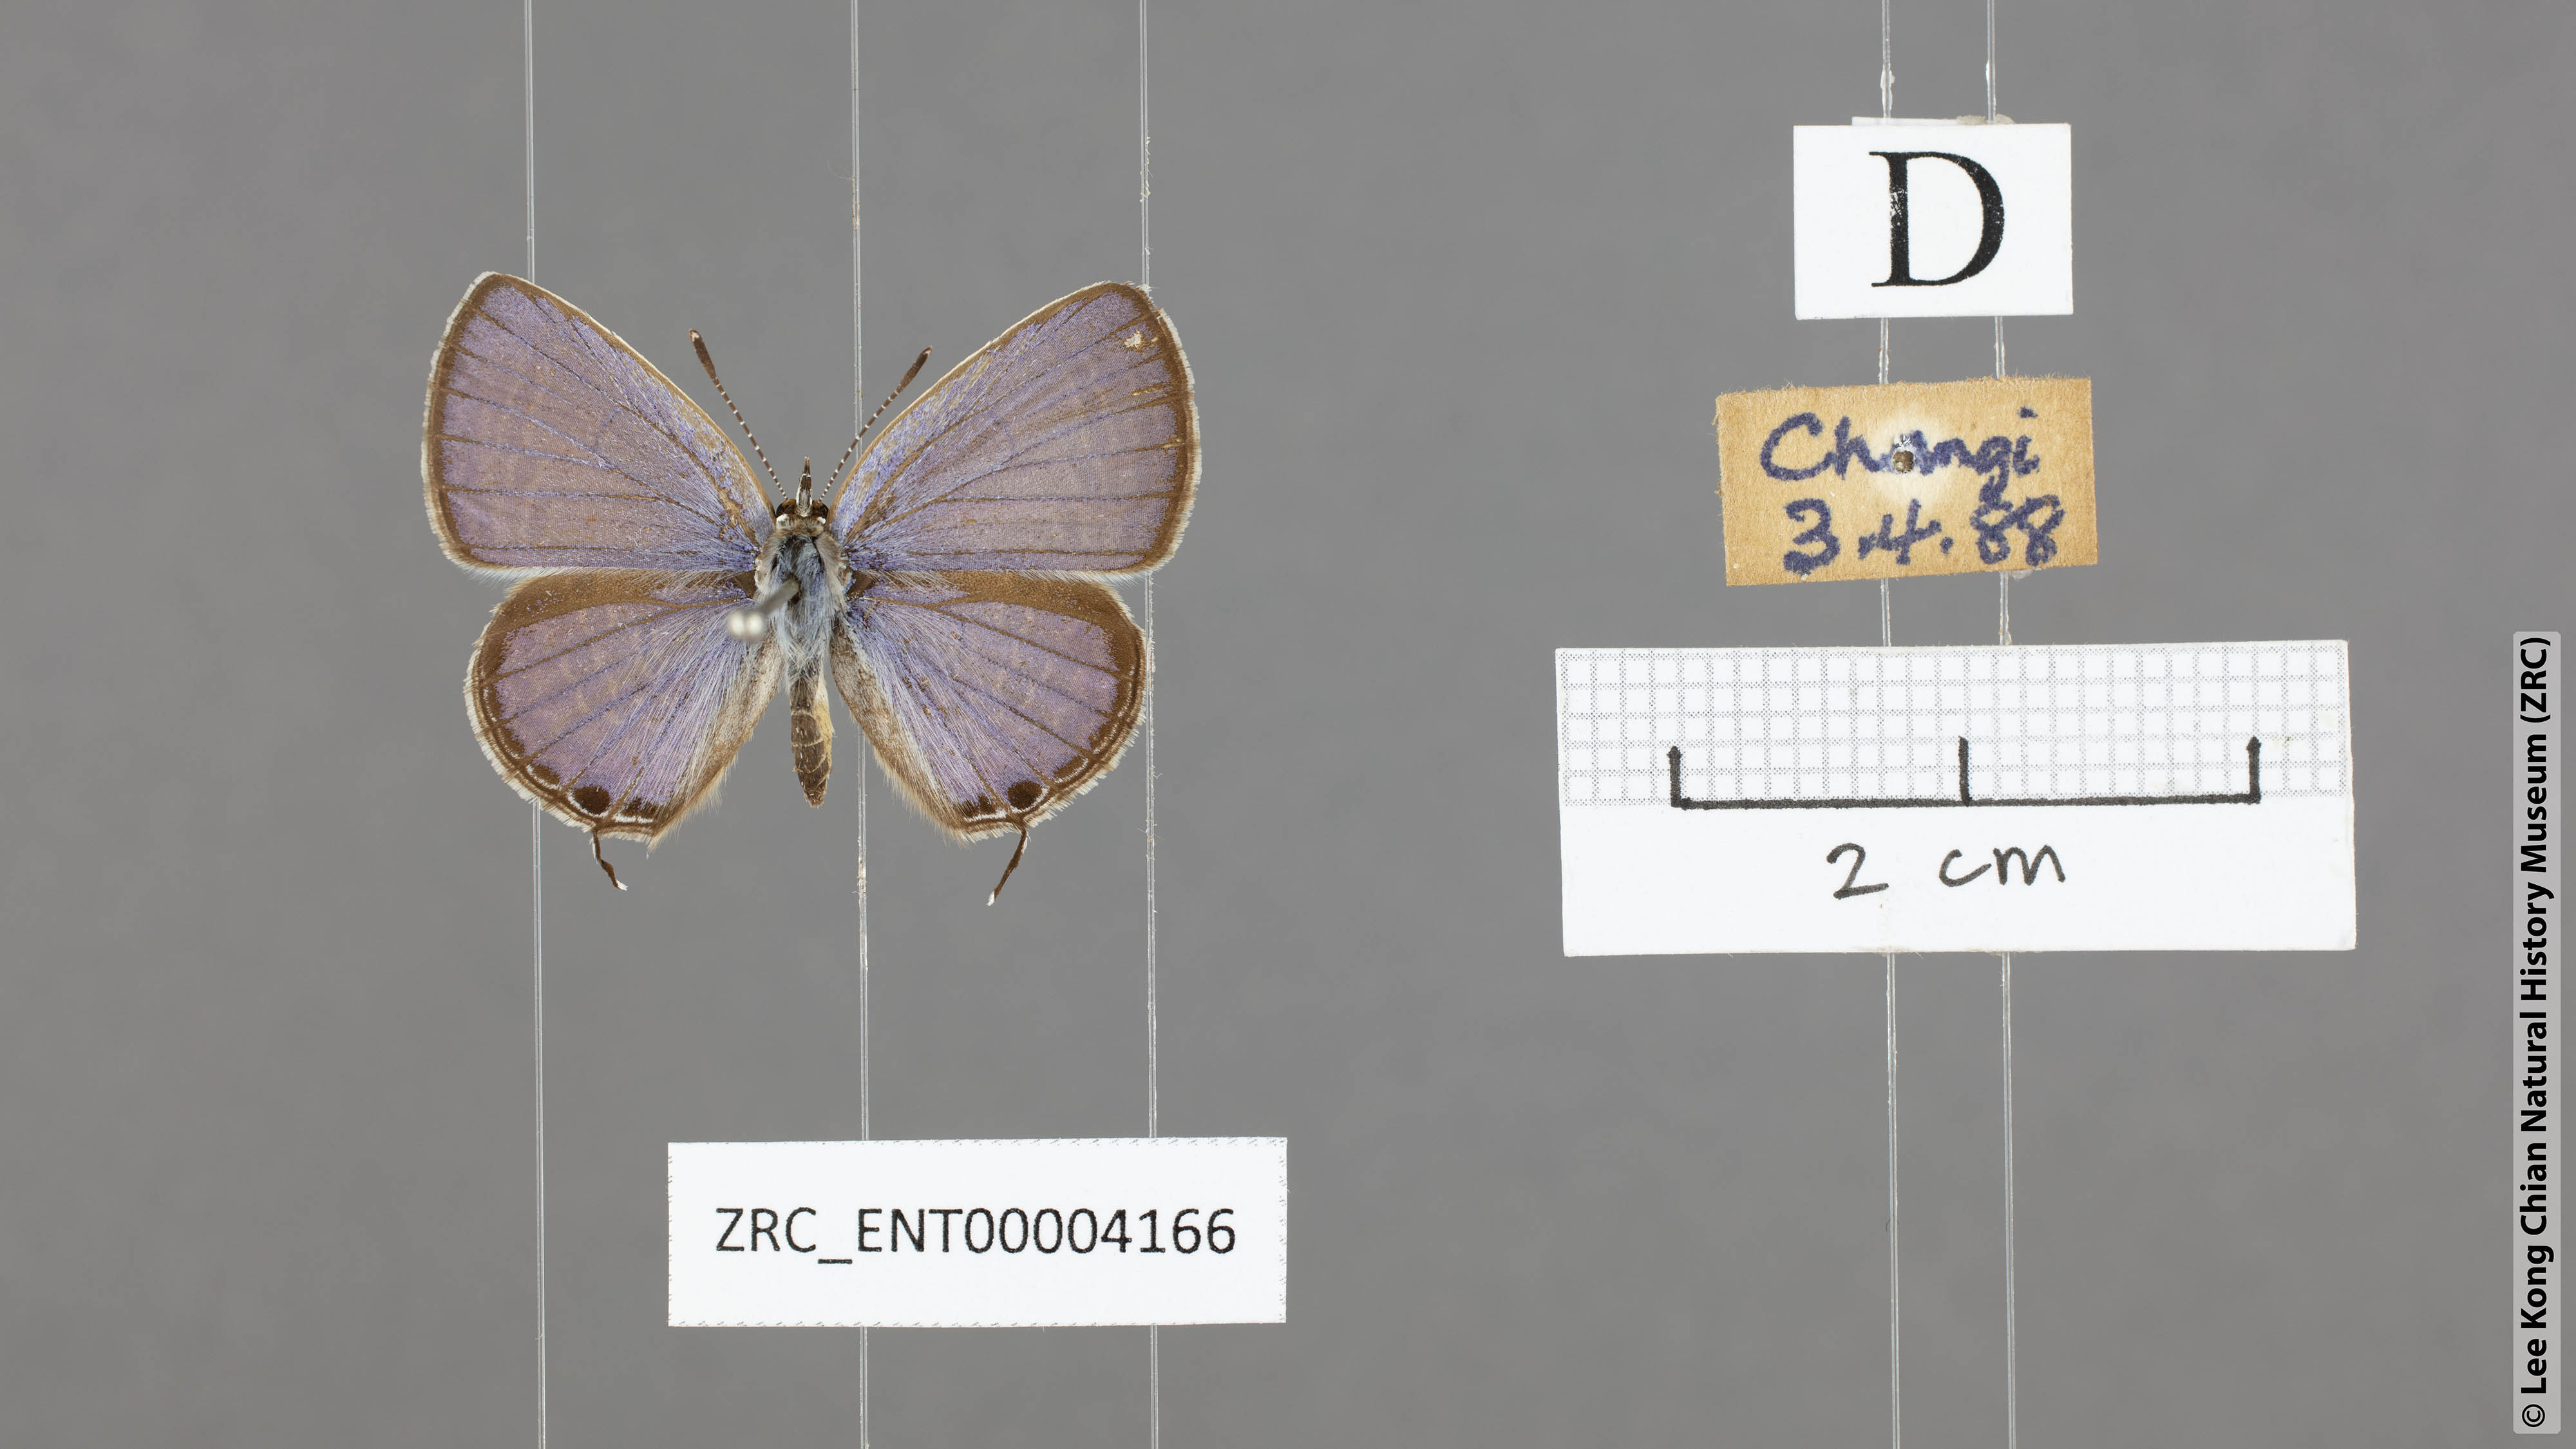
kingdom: Animalia
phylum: Arthropoda
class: Insecta
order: Lepidoptera
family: Lycaenidae
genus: Edales
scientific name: Edales pandava
